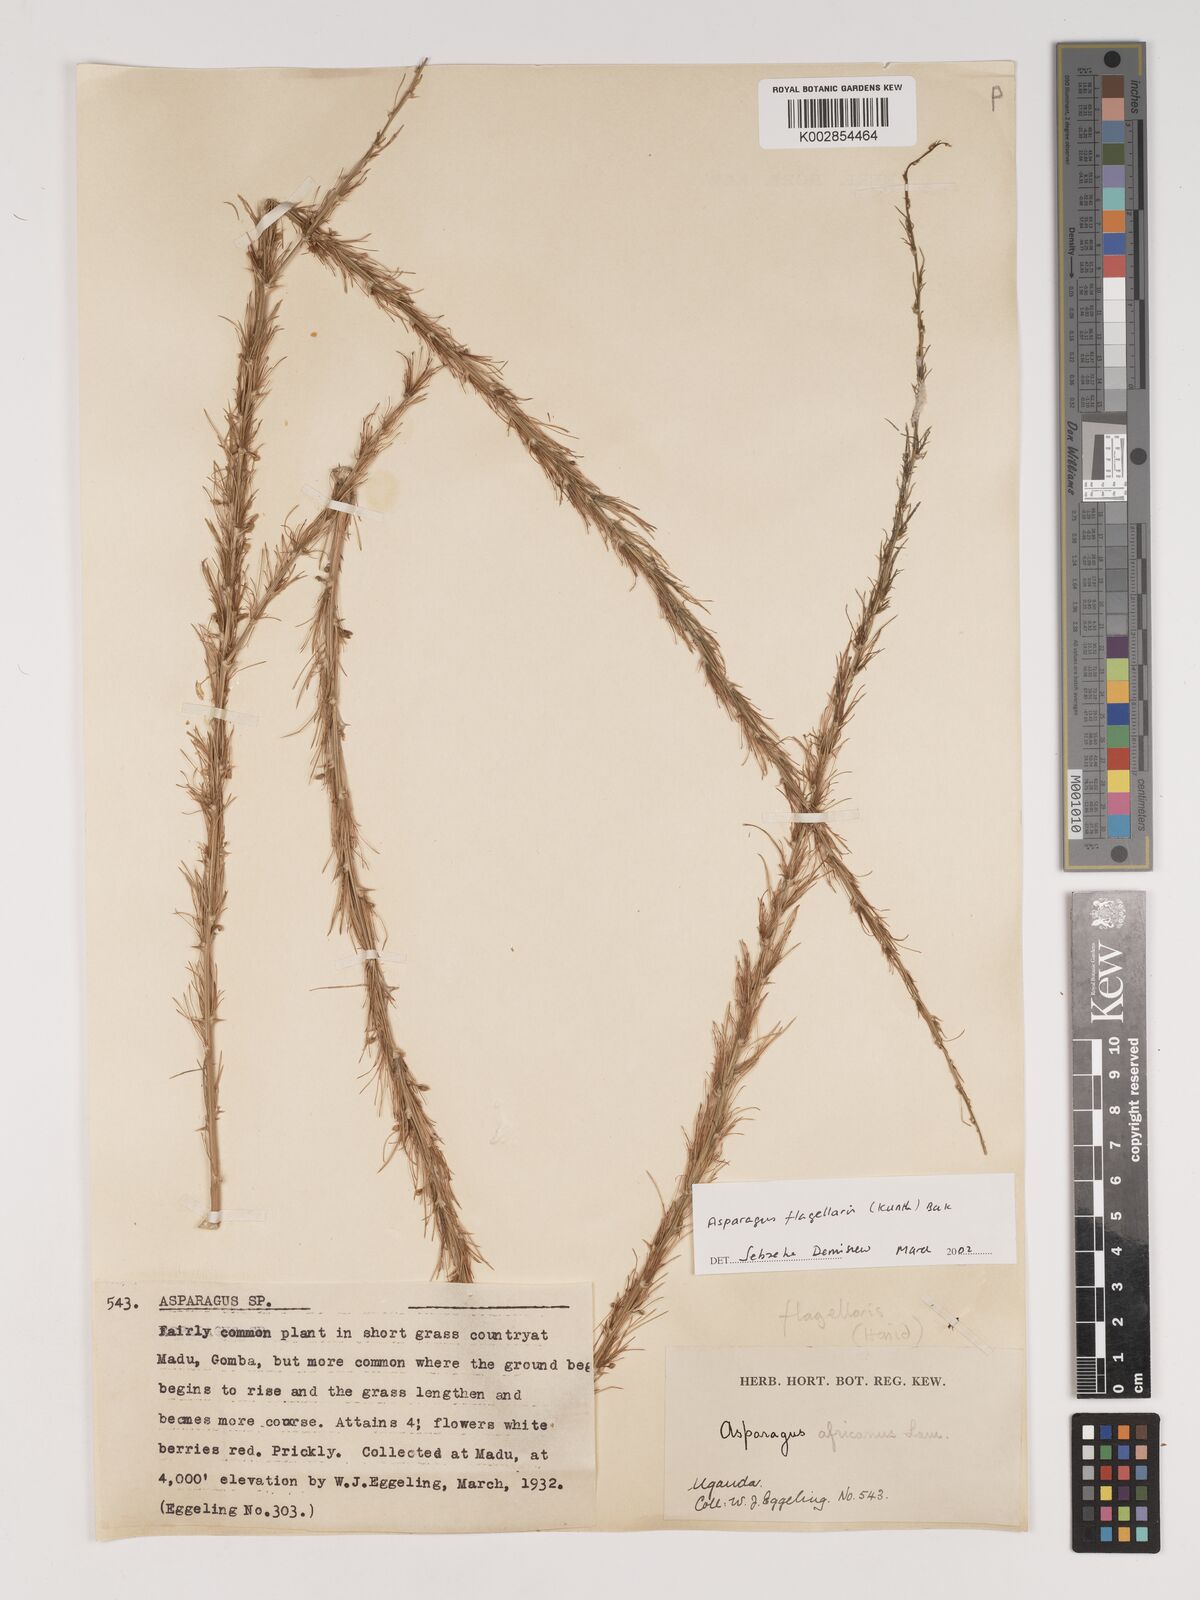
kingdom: Plantae
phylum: Tracheophyta
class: Liliopsida
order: Asparagales
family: Asparagaceae
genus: Asparagus
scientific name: Asparagus flagellaris
